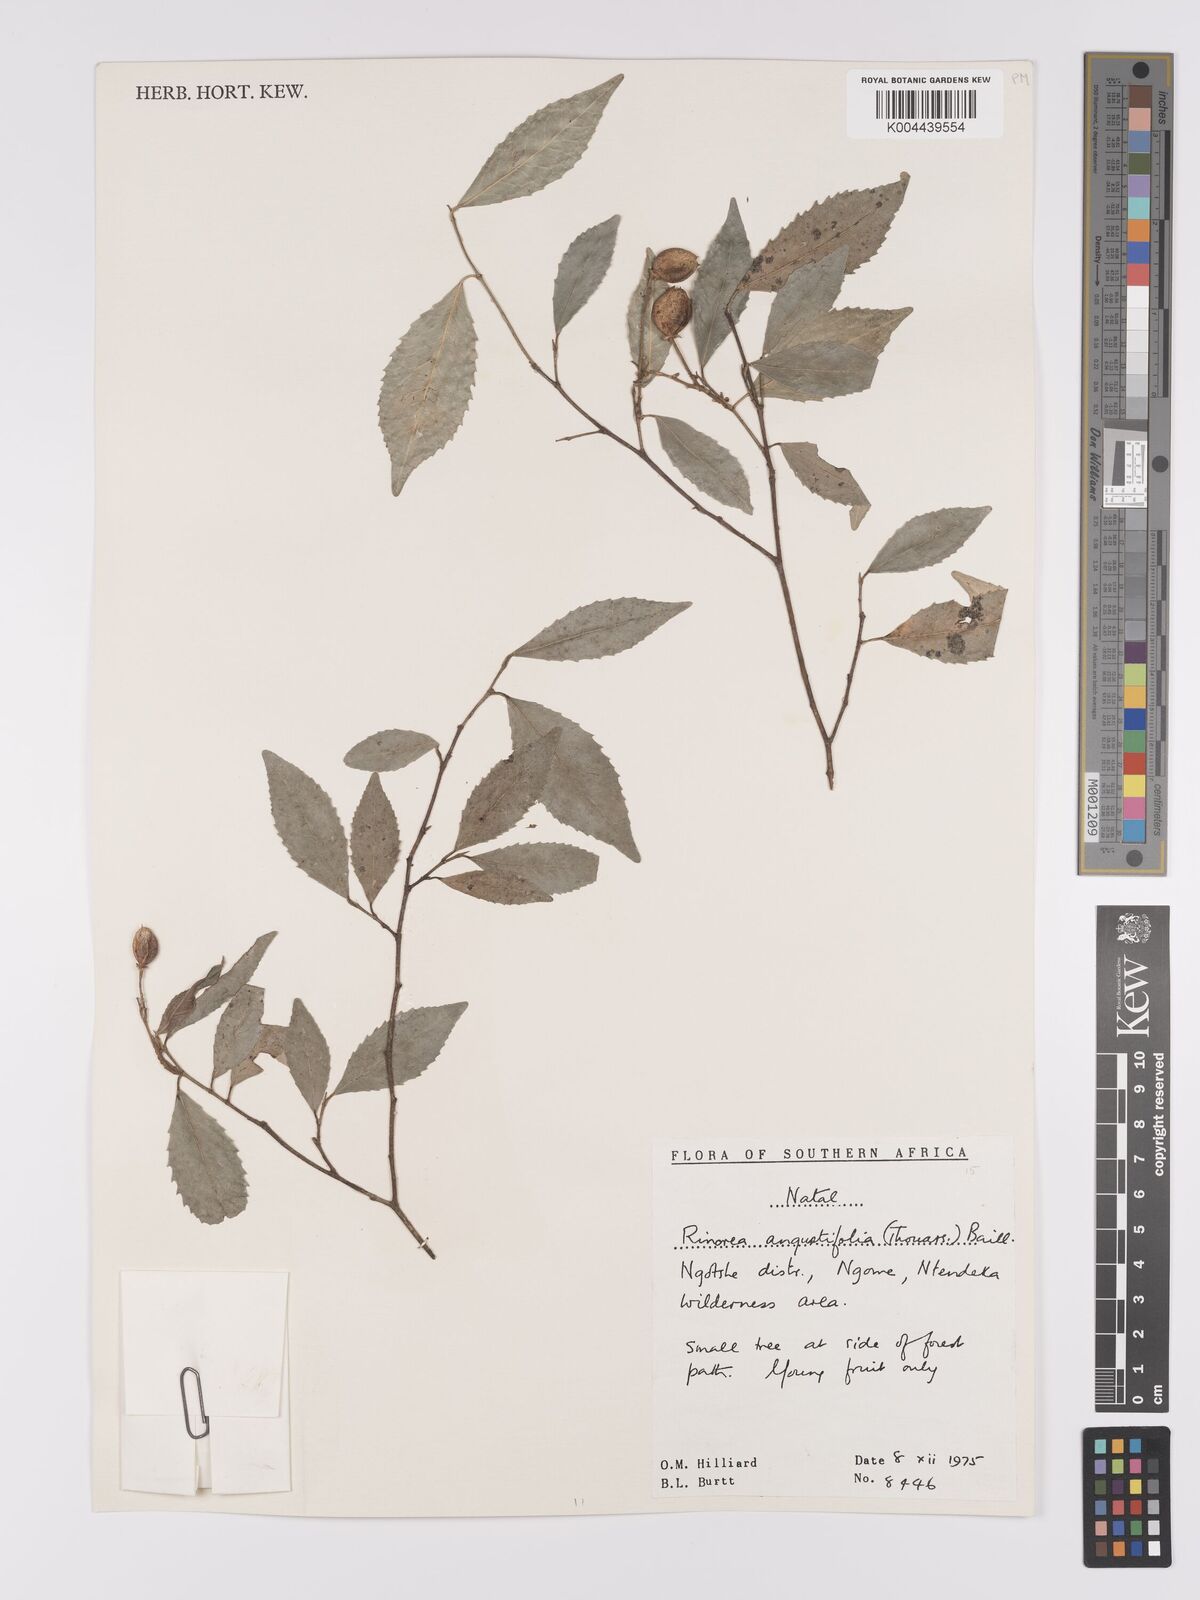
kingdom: Plantae
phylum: Tracheophyta
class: Magnoliopsida
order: Malpighiales
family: Violaceae
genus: Rinorea
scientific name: Rinorea angustifolia
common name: White violet-bush
